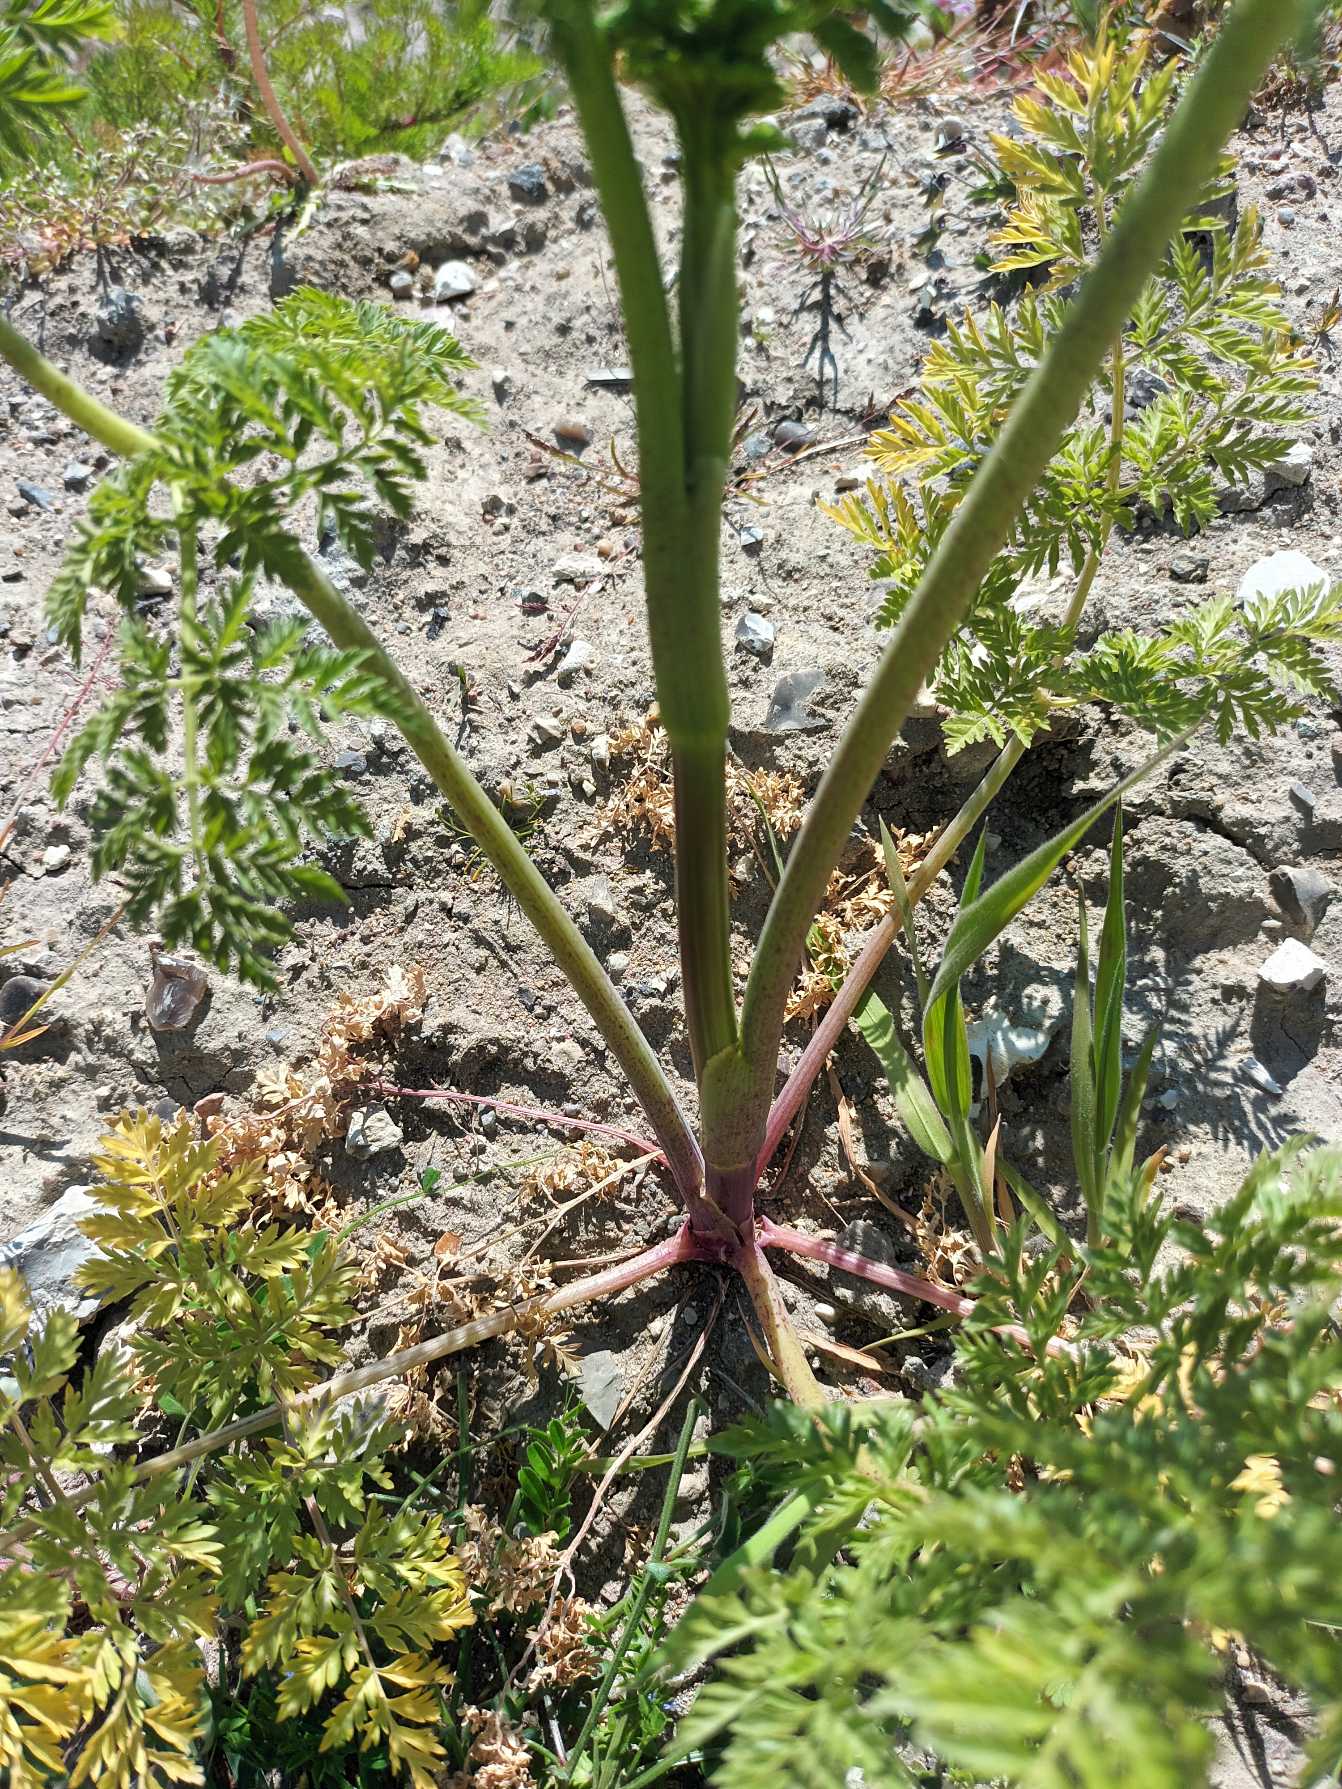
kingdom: Plantae
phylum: Tracheophyta
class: Magnoliopsida
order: Apiales
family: Apiaceae
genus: Conium
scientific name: Conium maculatum
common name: Skarntyde
